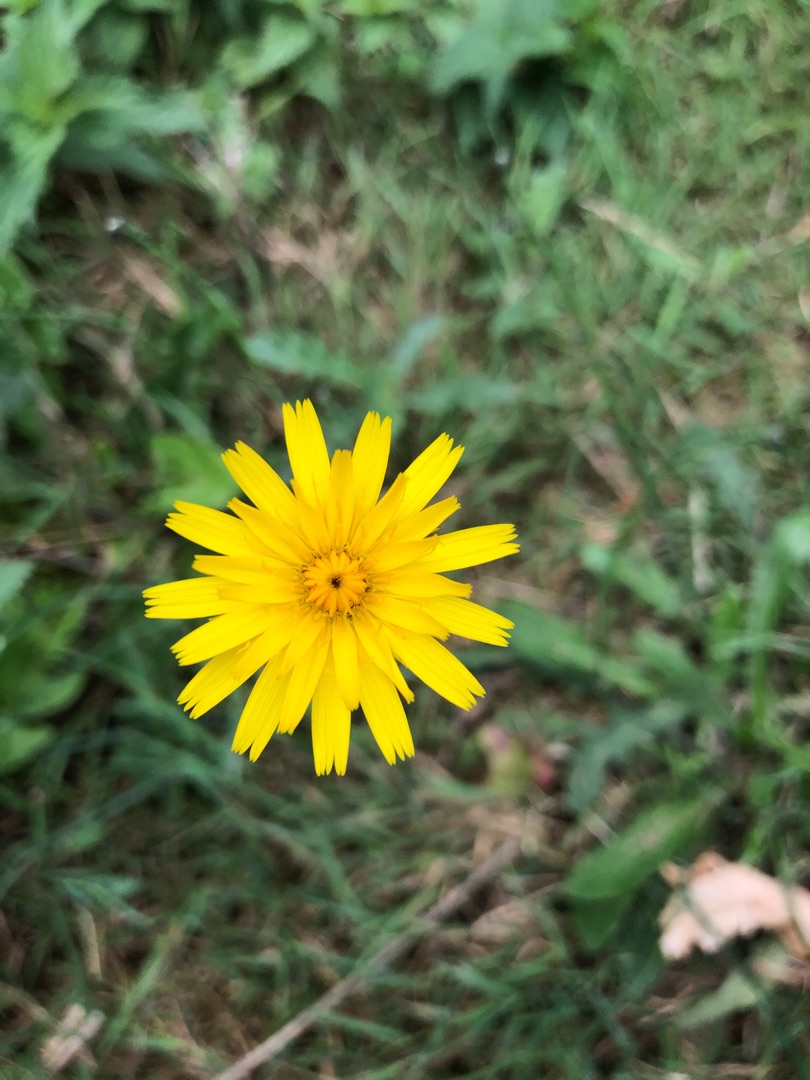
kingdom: Plantae
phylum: Tracheophyta
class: Magnoliopsida
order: Asterales
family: Asteraceae
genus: Hypochaeris
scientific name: Hypochaeris radicata
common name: Almindelig kongepen
